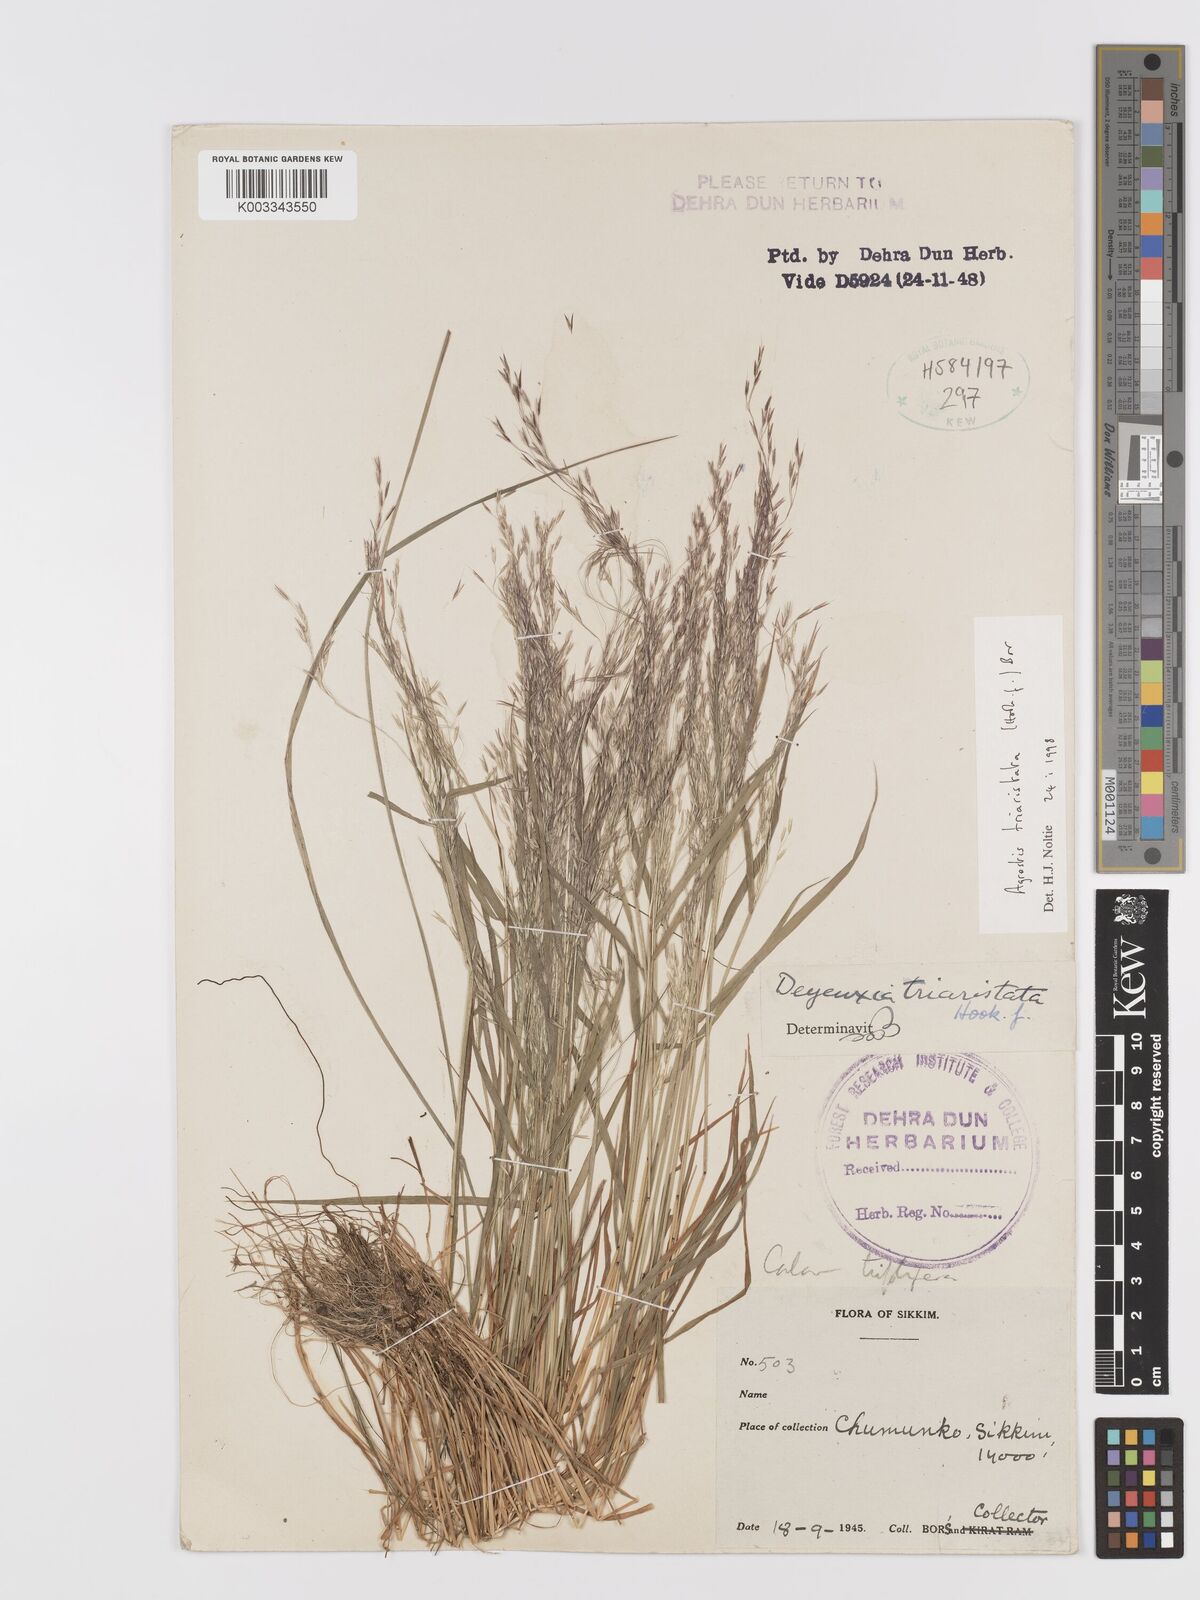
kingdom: Plantae
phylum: Tracheophyta
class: Liliopsida
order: Poales
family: Poaceae
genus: Agrostis
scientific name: Agrostis
